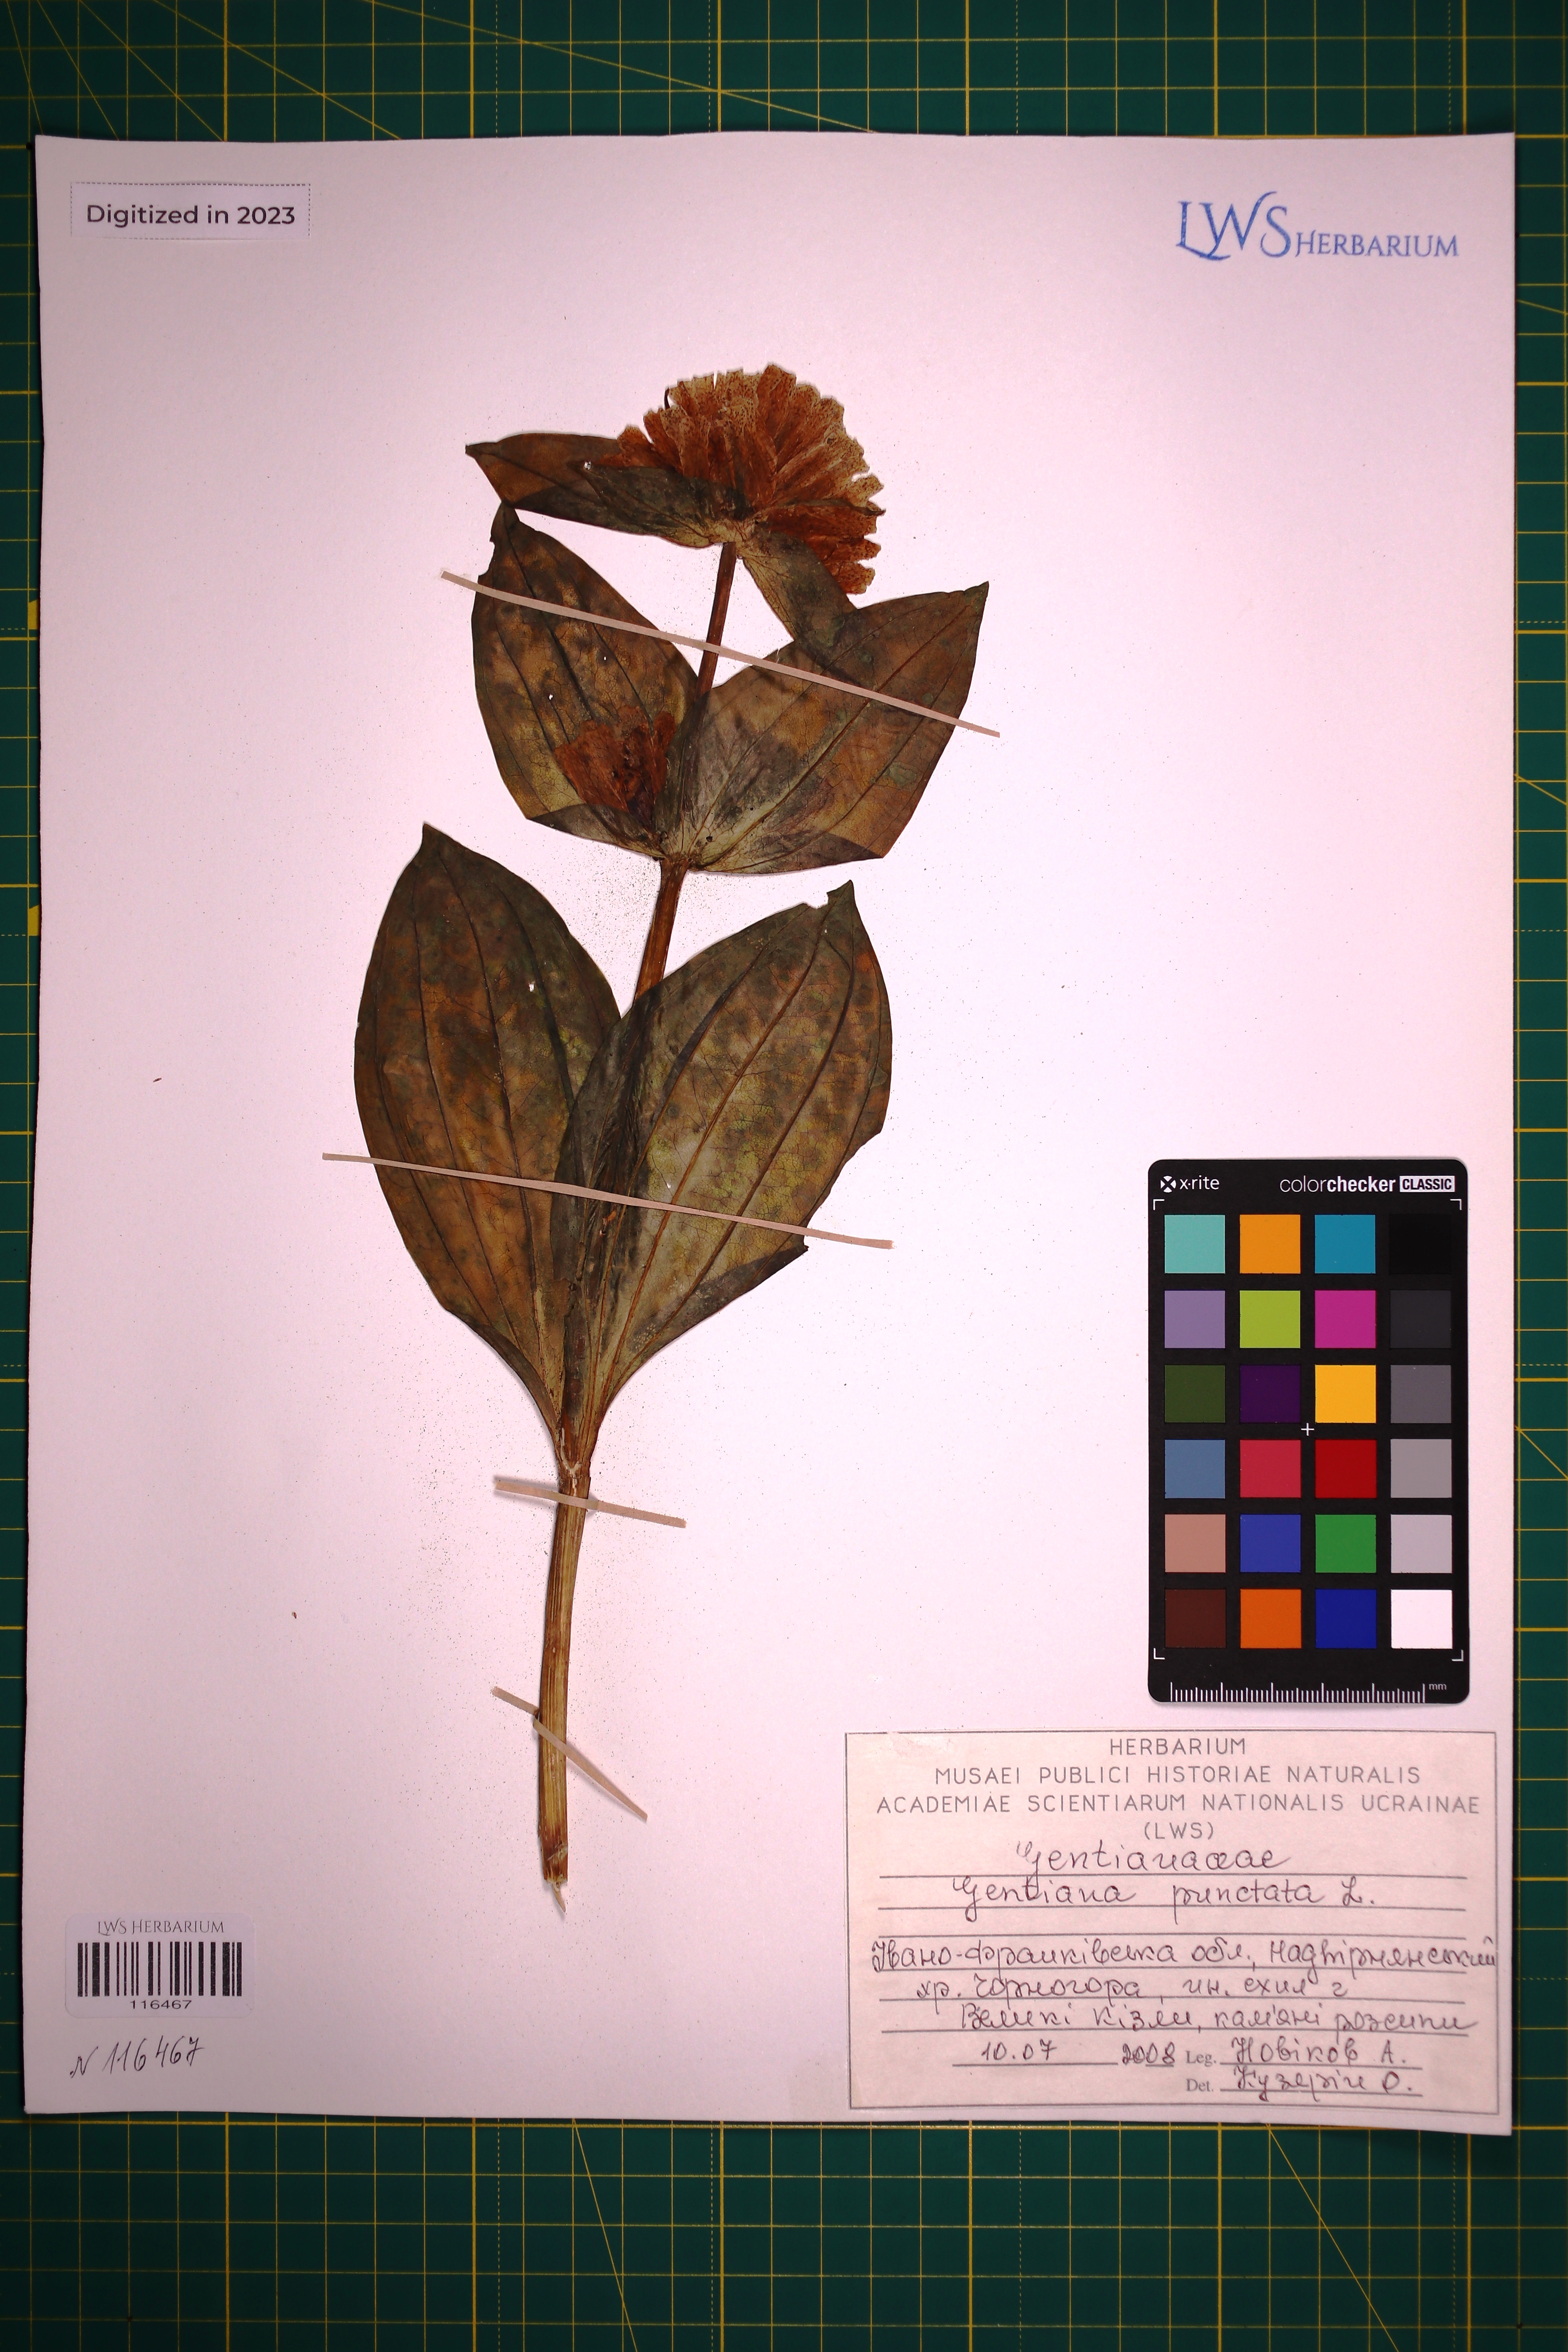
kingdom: Plantae
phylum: Tracheophyta
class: Magnoliopsida
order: Gentianales
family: Gentianaceae
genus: Gentiana
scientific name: Gentiana punctata
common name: Spotted gentian
